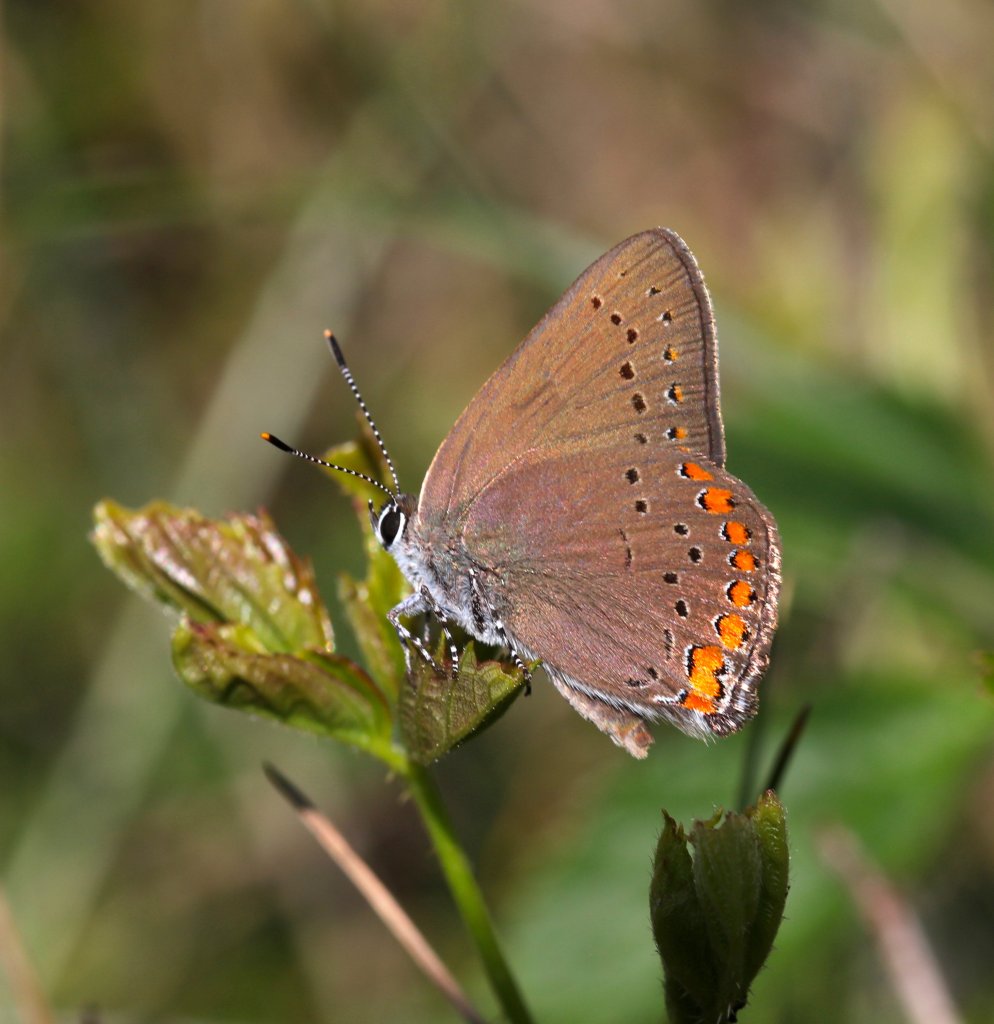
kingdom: Animalia
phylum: Arthropoda
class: Insecta
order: Lepidoptera
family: Lycaenidae
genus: Harkenclenus
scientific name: Harkenclenus titus
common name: Coral Hairstreak
